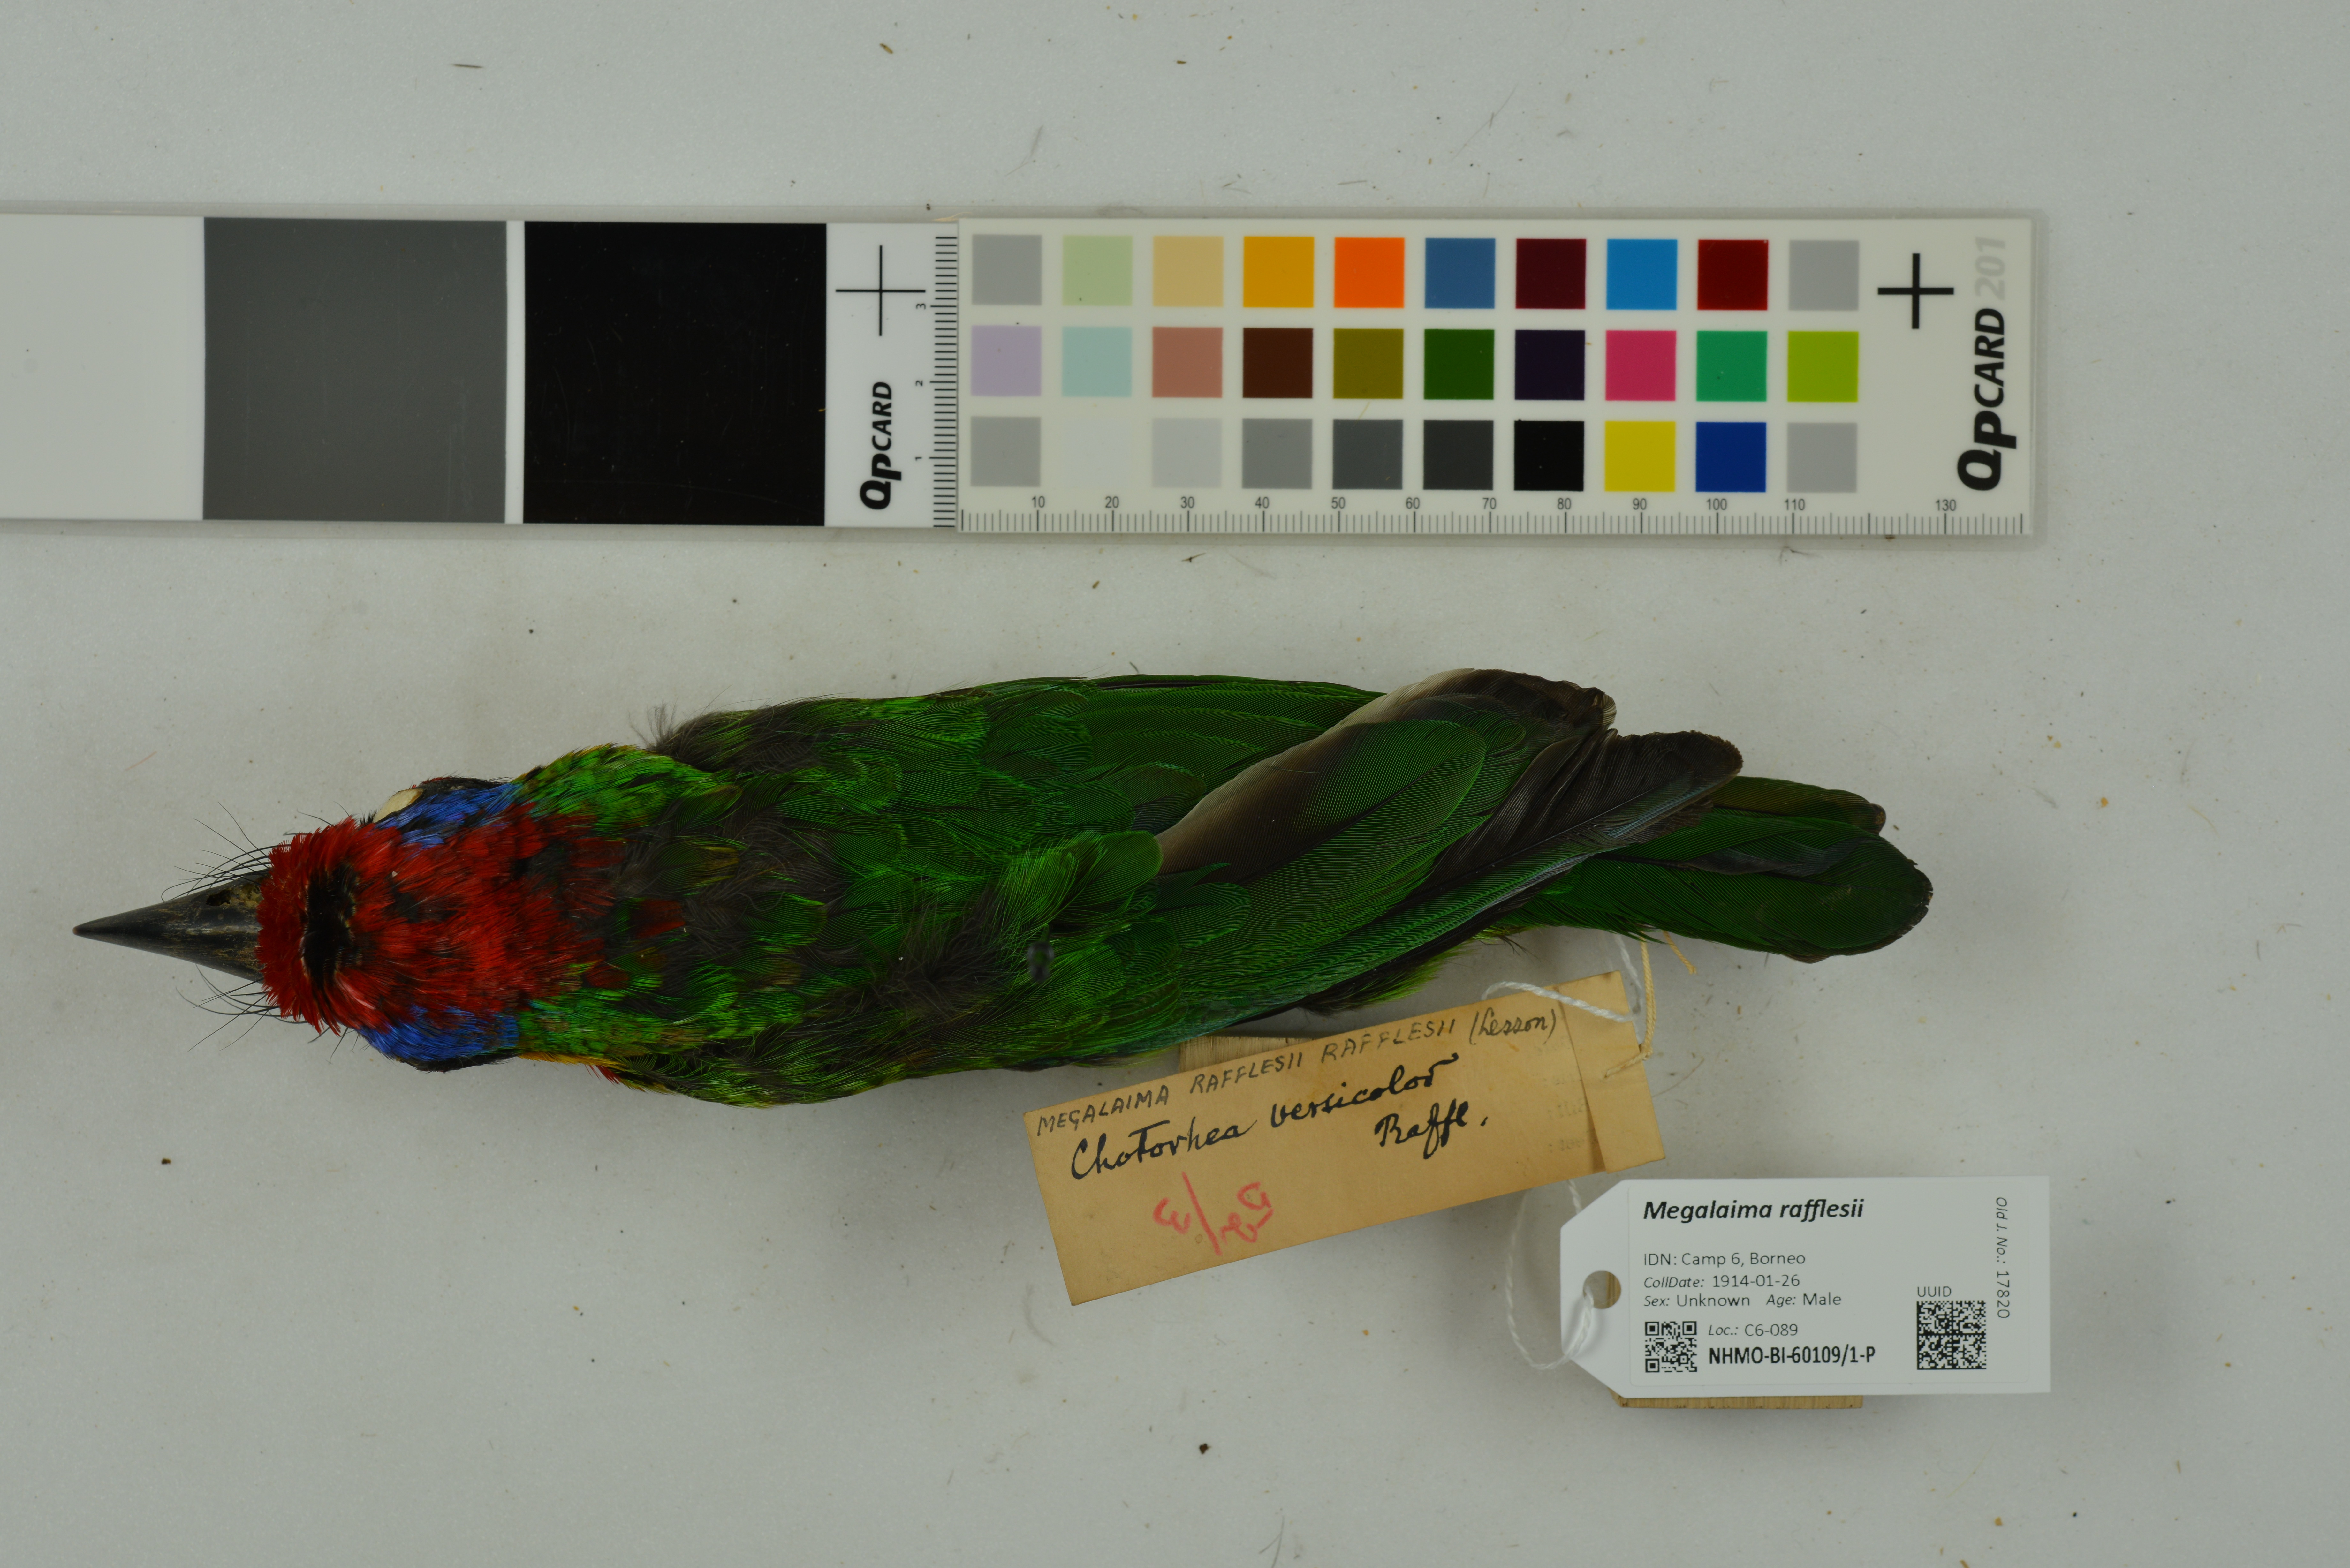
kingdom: Animalia
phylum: Chordata
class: Aves
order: Piciformes
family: Megalaimidae
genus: Psilopogon
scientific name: Psilopogon rafflesii
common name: Red-crowned barbet
